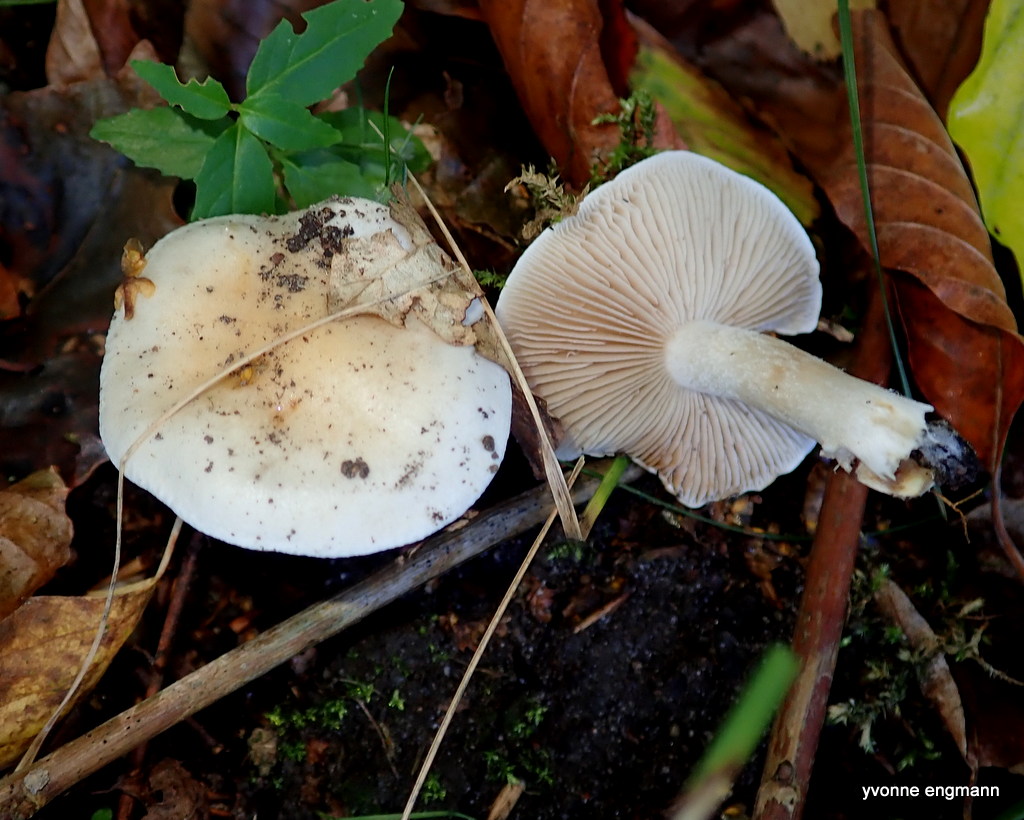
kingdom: Fungi
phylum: Basidiomycota
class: Agaricomycetes
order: Agaricales
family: Hymenogastraceae
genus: Hebeloma
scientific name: Hebeloma
